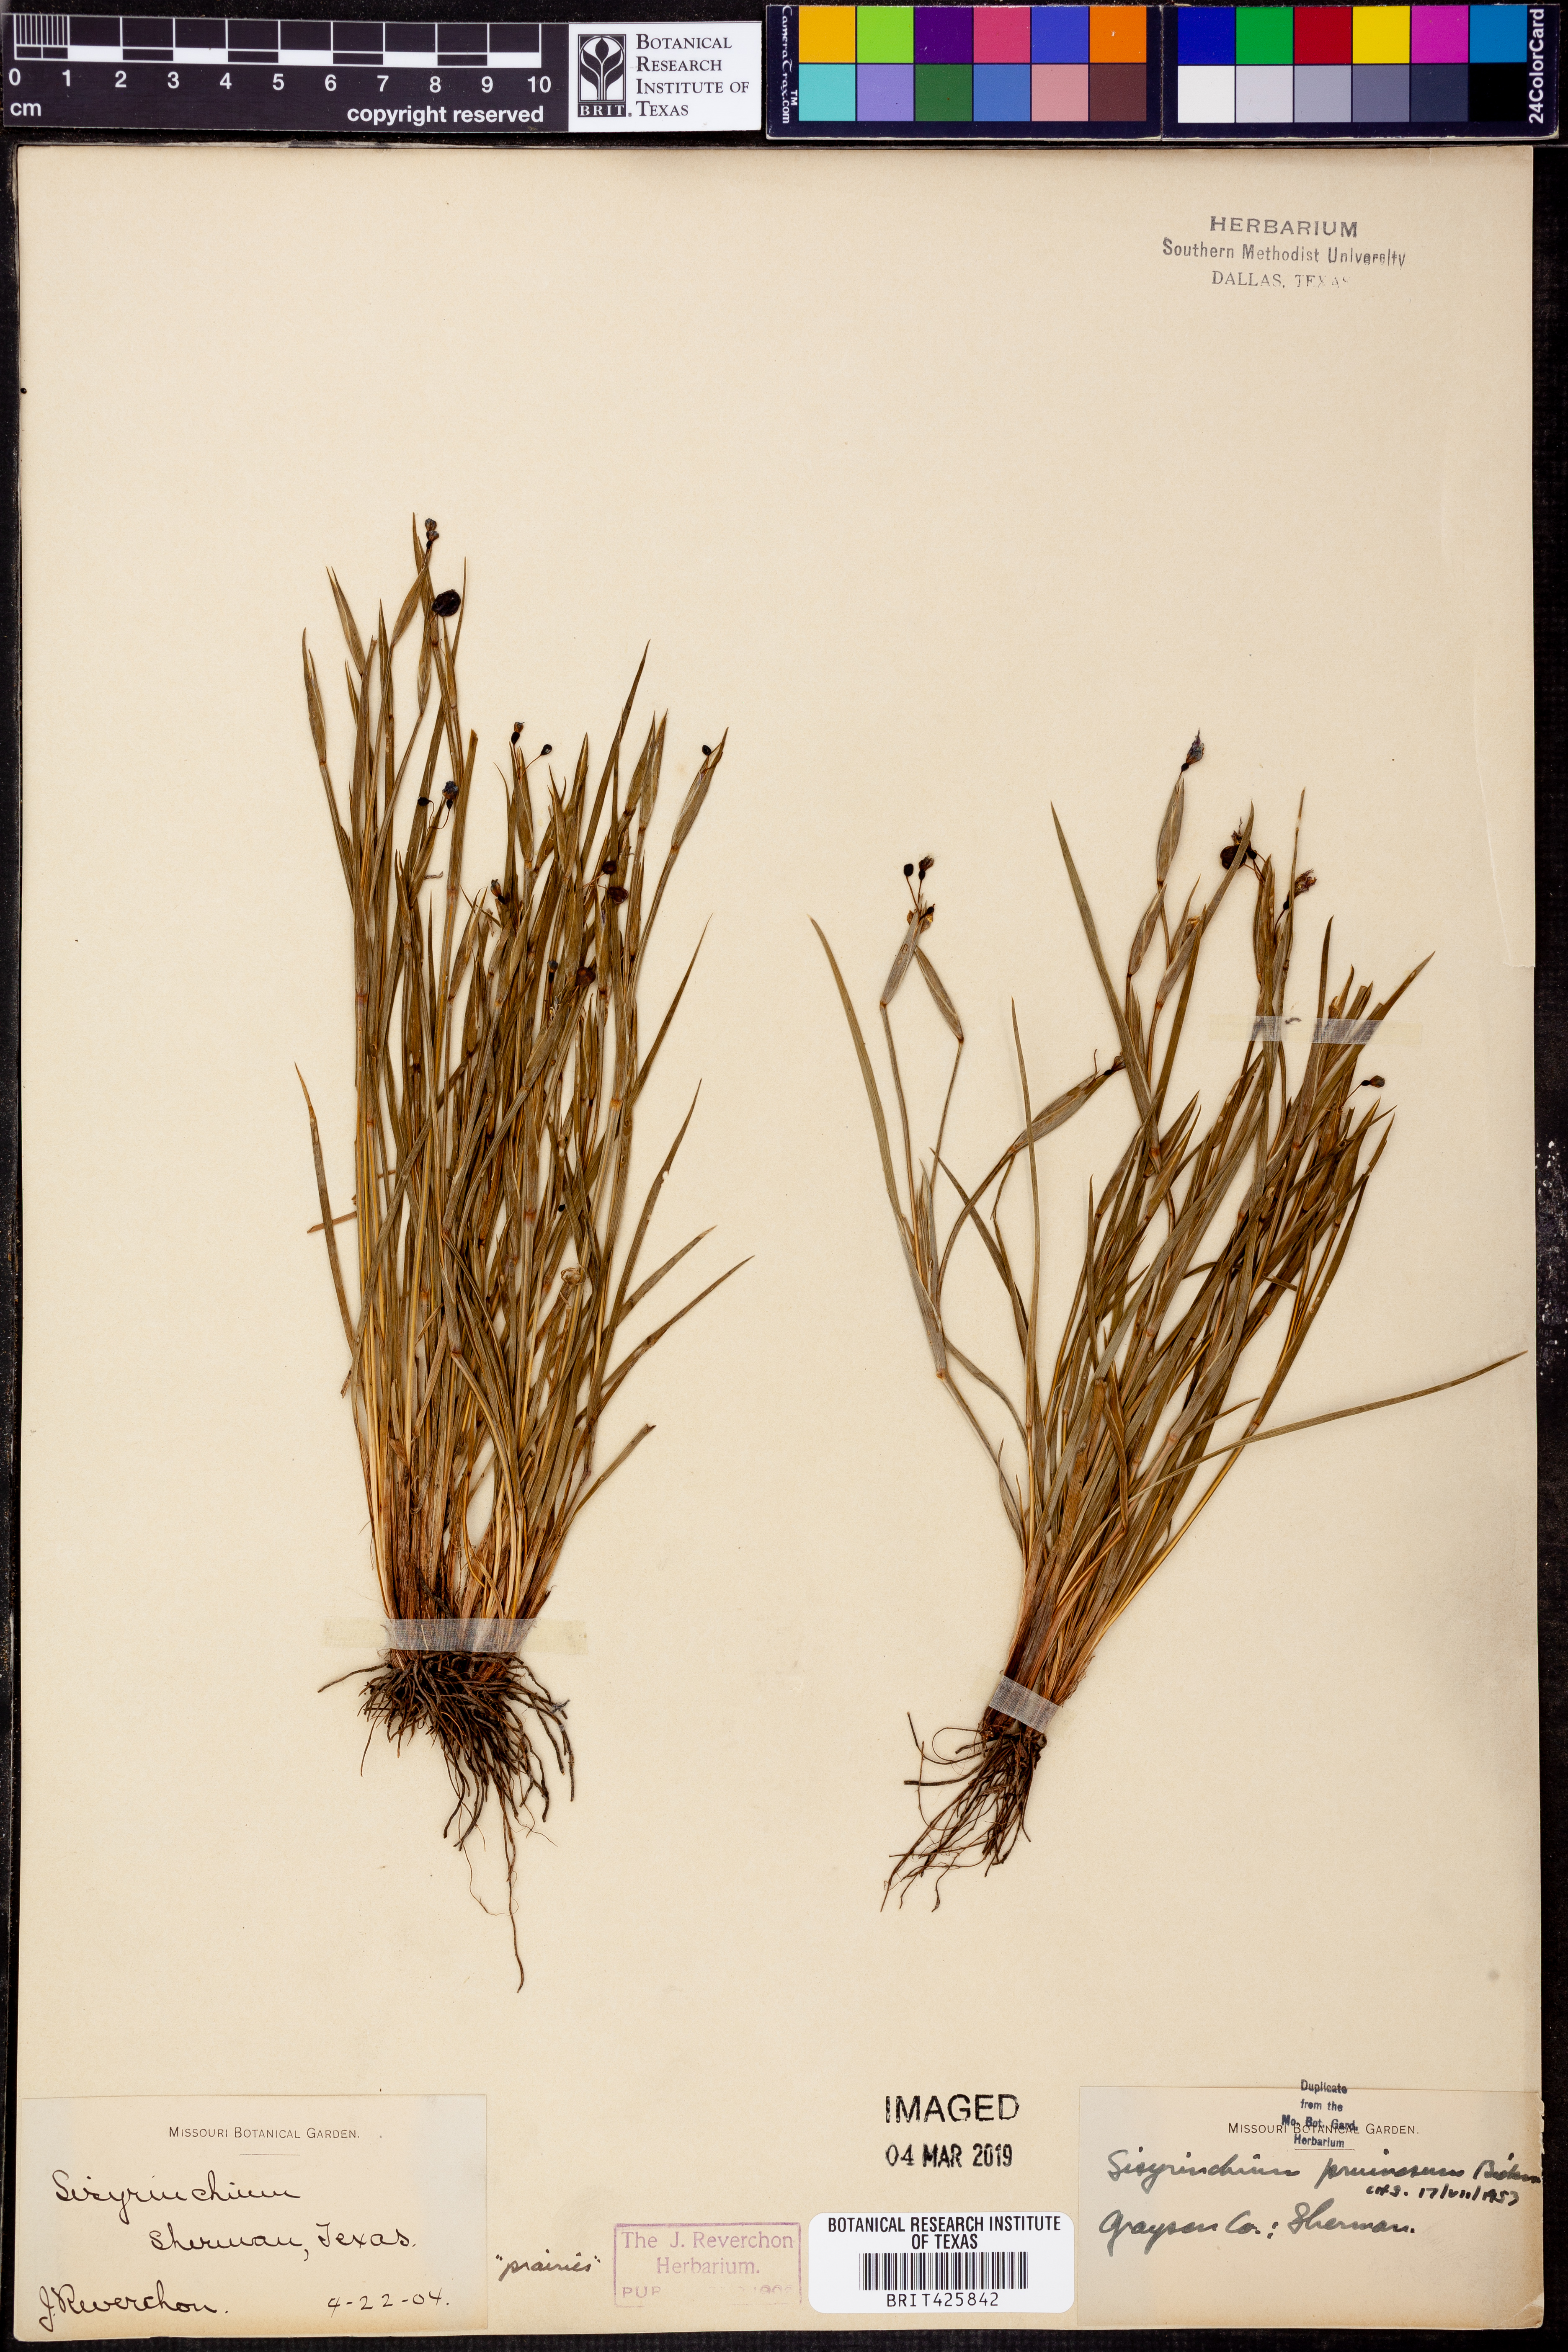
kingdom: Plantae
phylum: Tracheophyta
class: Liliopsida
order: Asparagales
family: Iridaceae
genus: Sisyrinchium
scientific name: Sisyrinchium pruinosum
